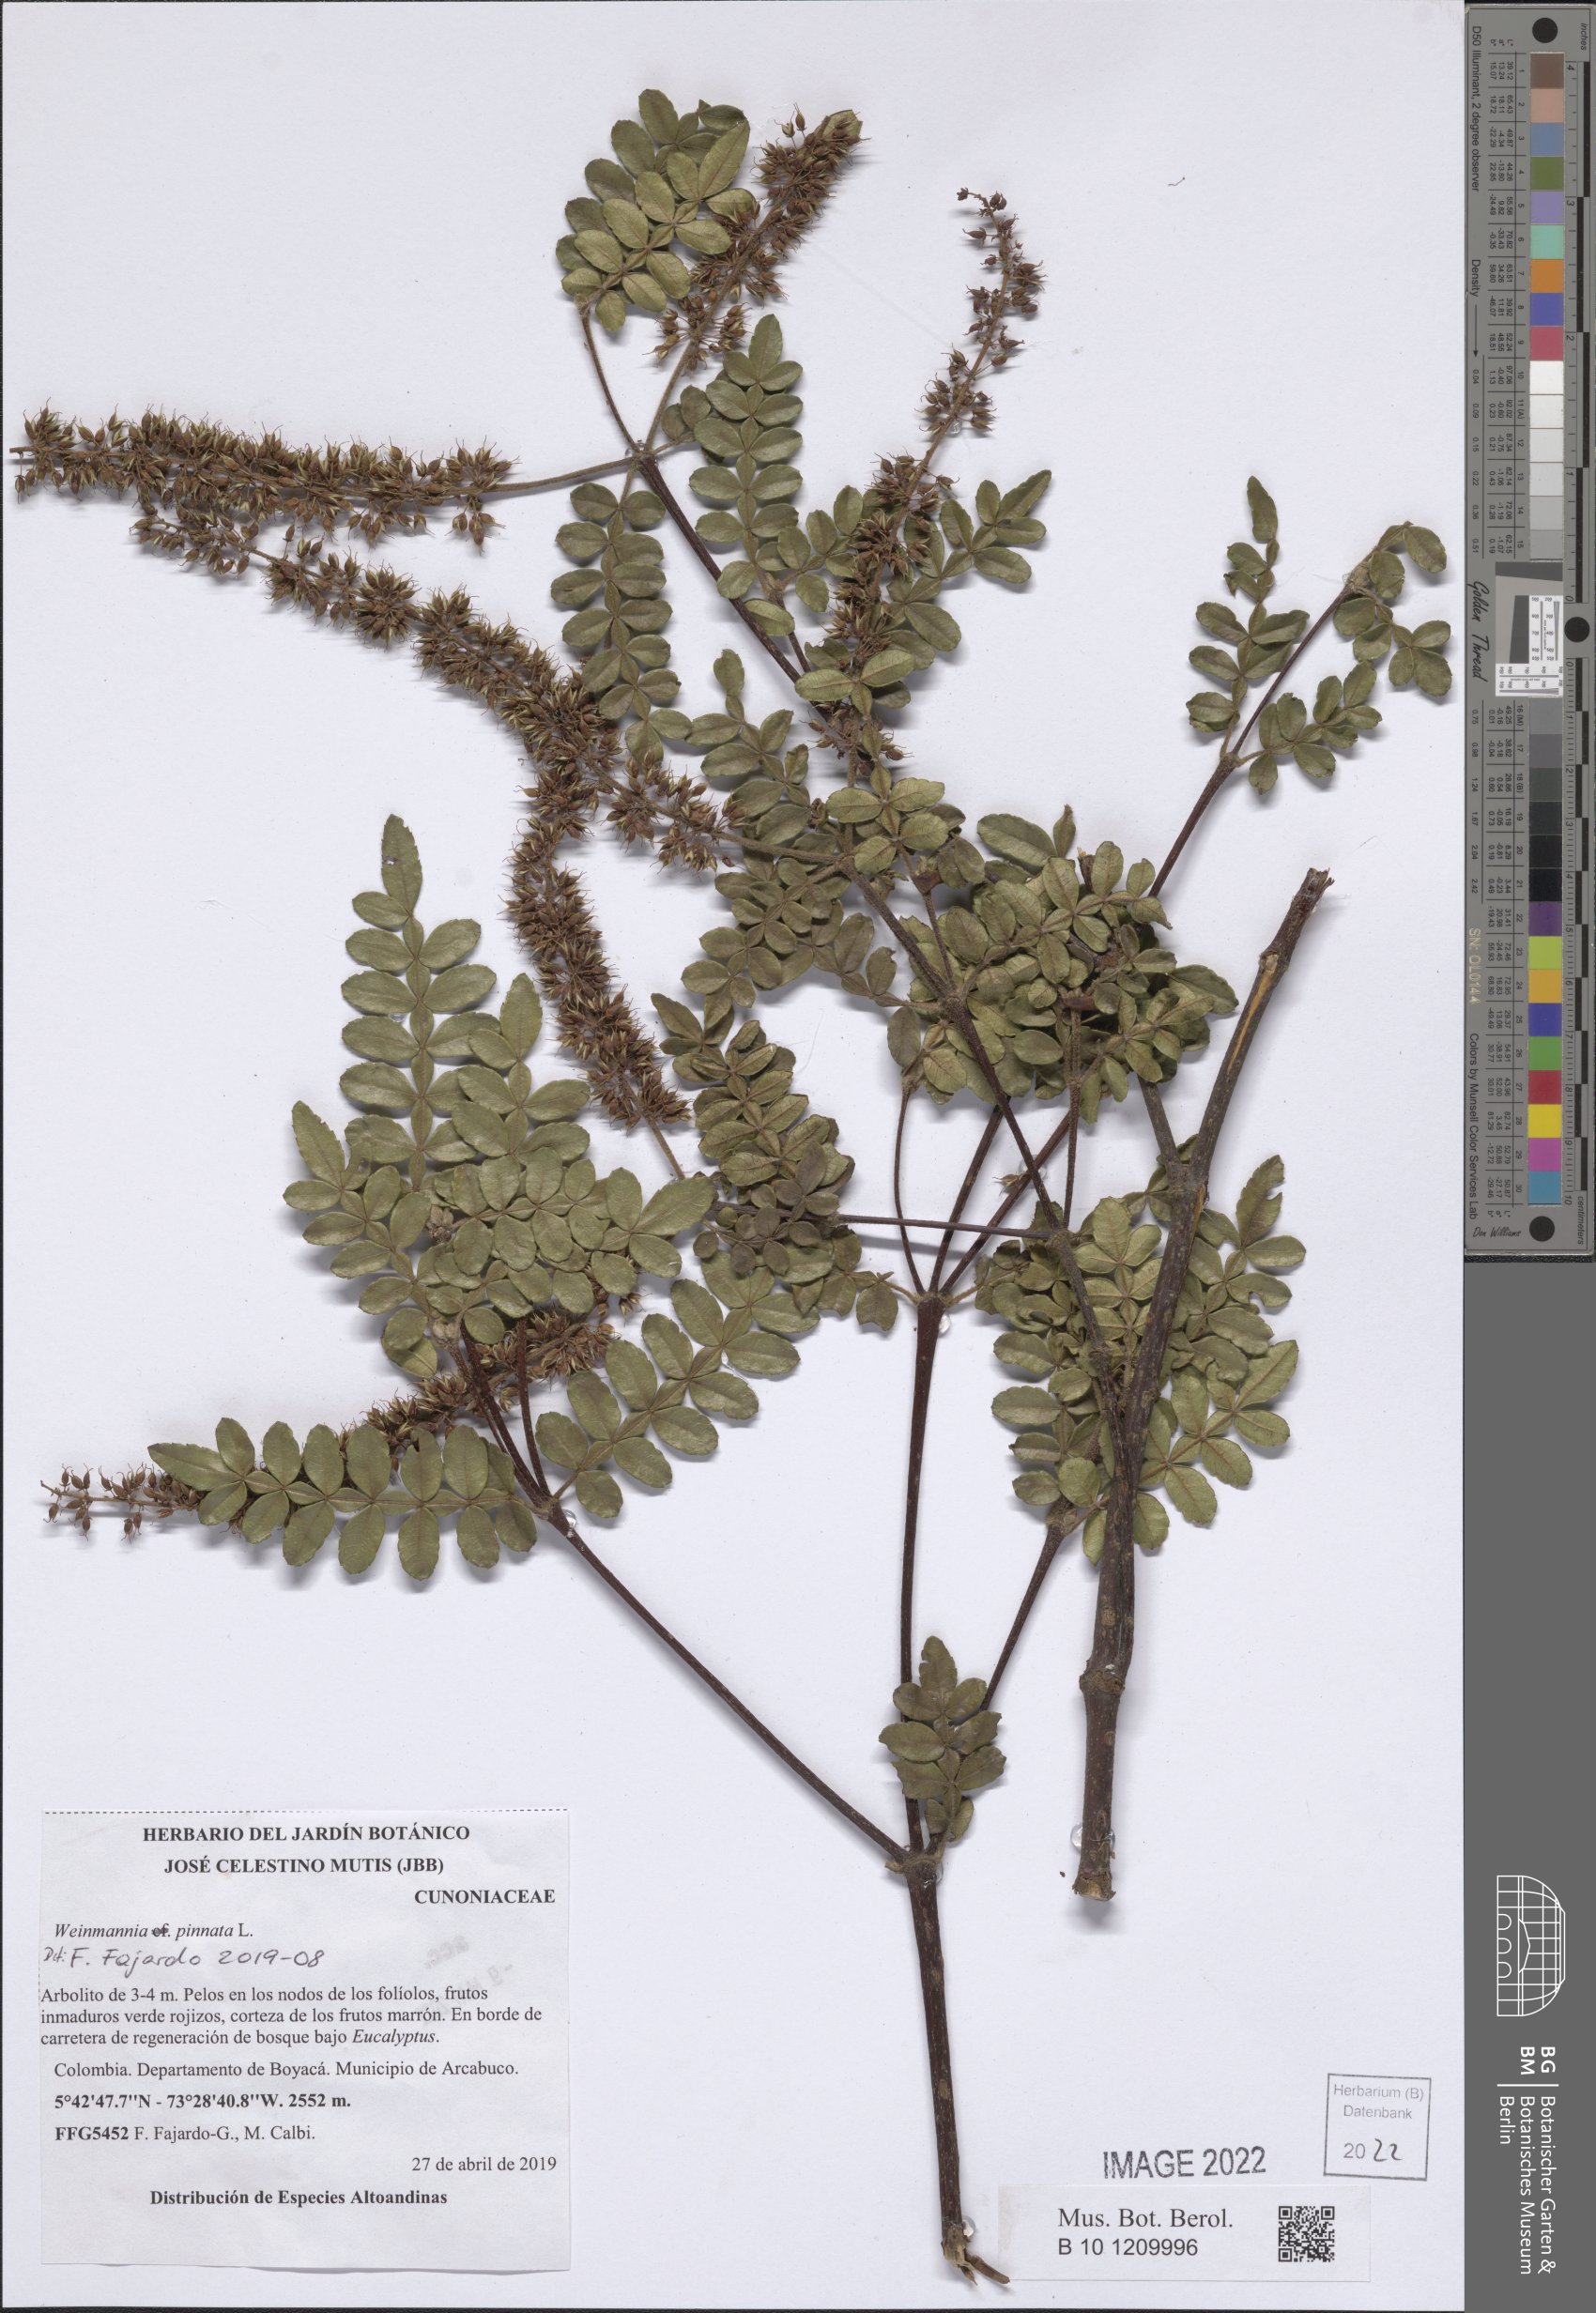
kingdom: Plantae
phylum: Tracheophyta
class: Magnoliopsida
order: Oxalidales
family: Cunoniaceae
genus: Weinmannia
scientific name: Weinmannia pinnata
